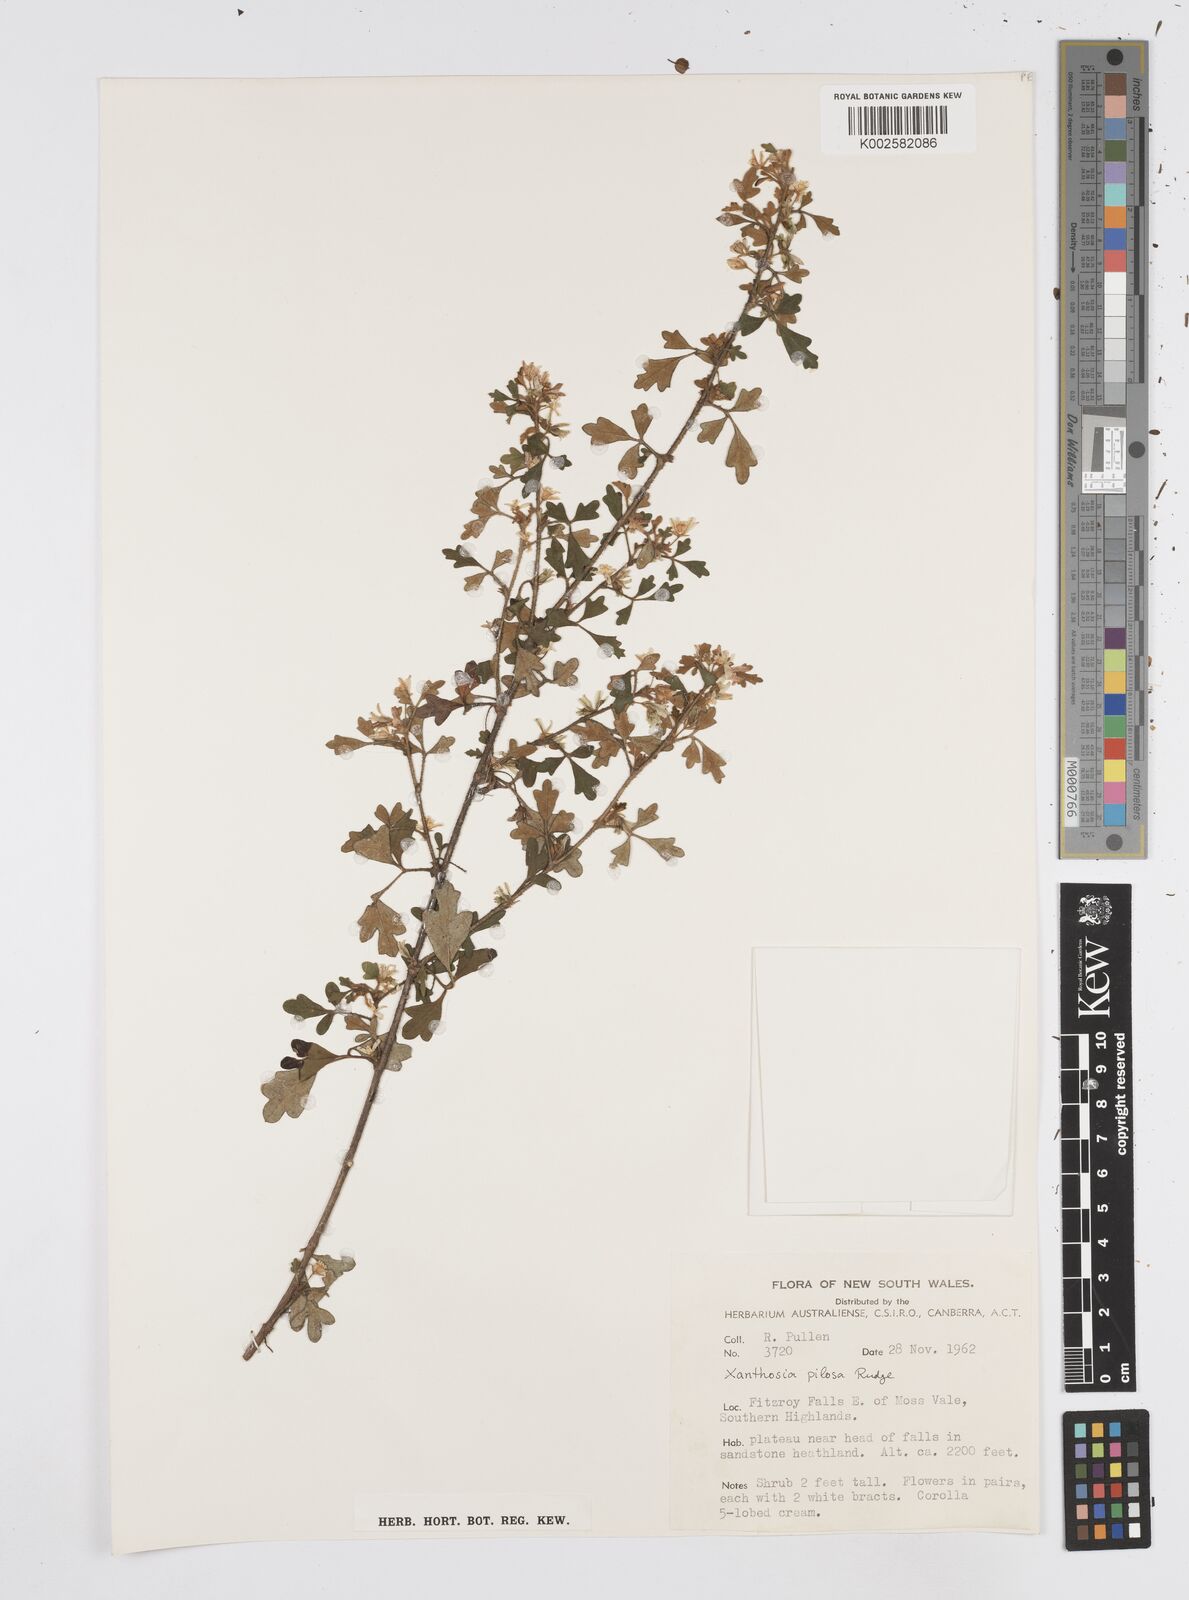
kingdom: Plantae
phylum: Tracheophyta
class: Magnoliopsida
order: Apiales
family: Apiaceae
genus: Xanthosia
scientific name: Xanthosia pilosa
